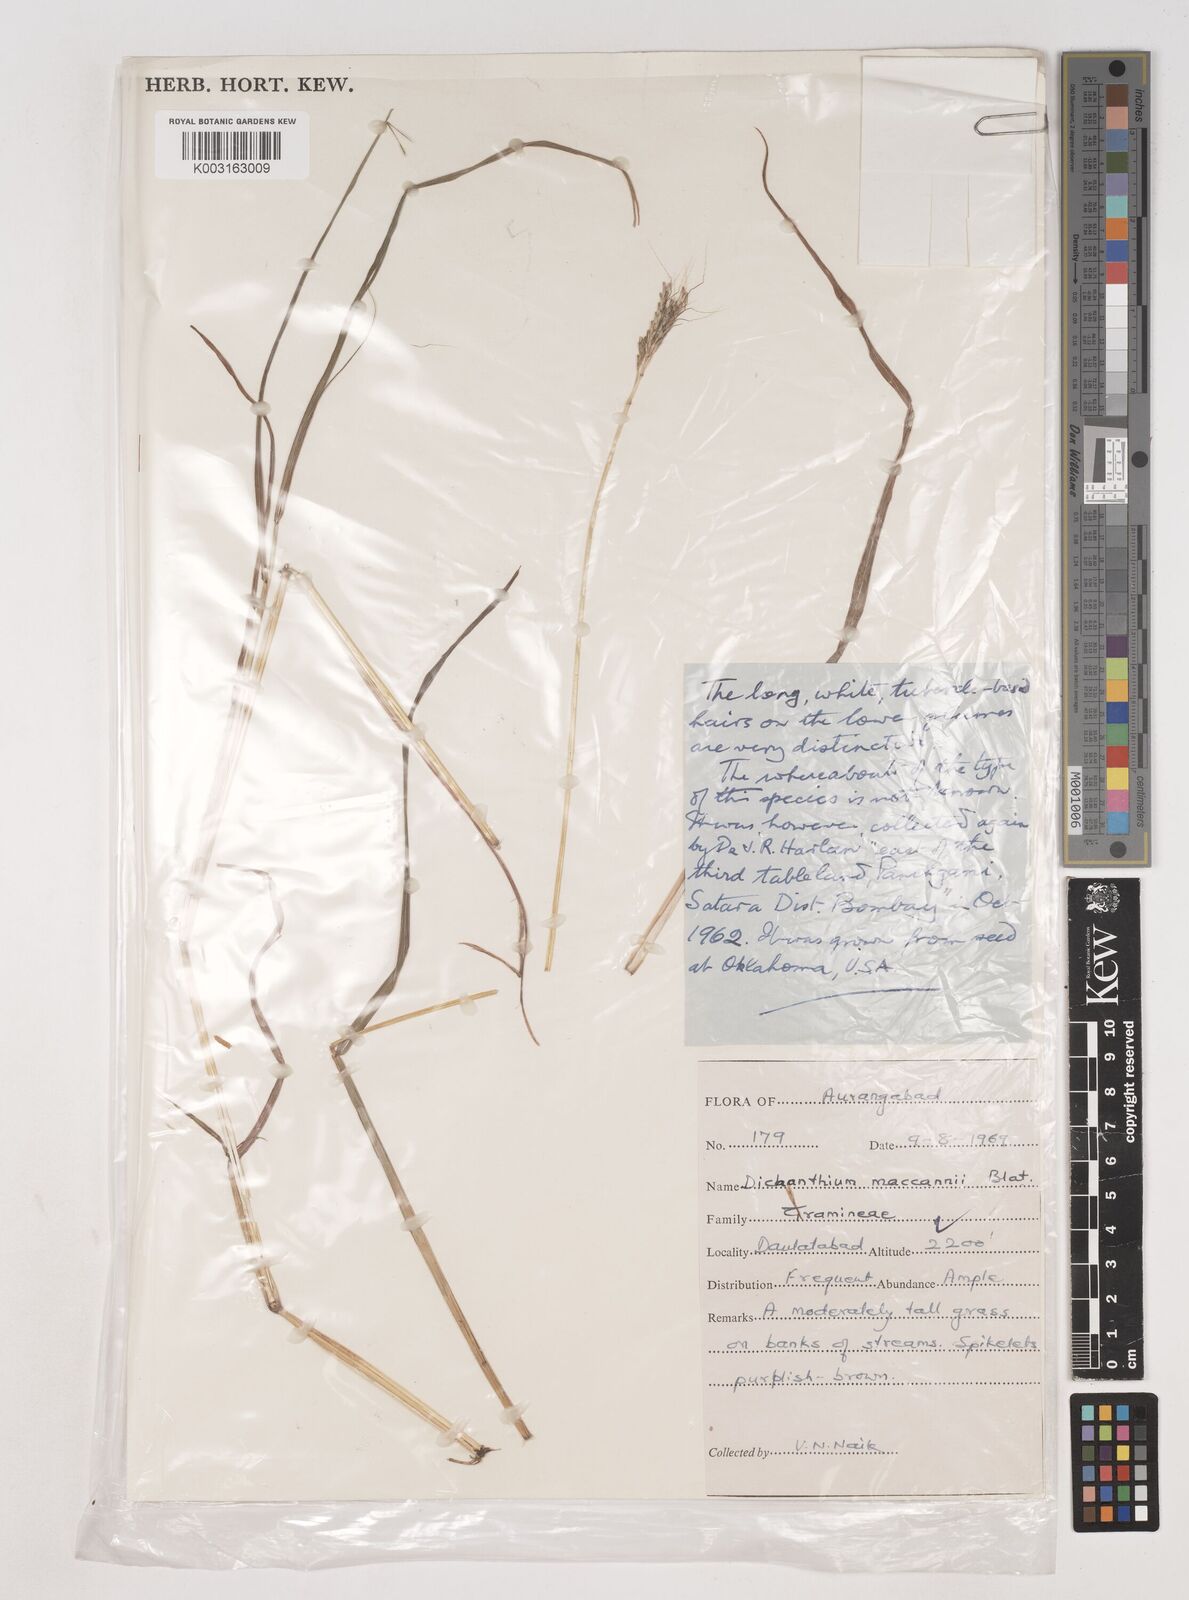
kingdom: Plantae
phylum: Tracheophyta
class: Liliopsida
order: Poales
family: Poaceae
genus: Dichanthium
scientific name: Dichanthium mccannii
